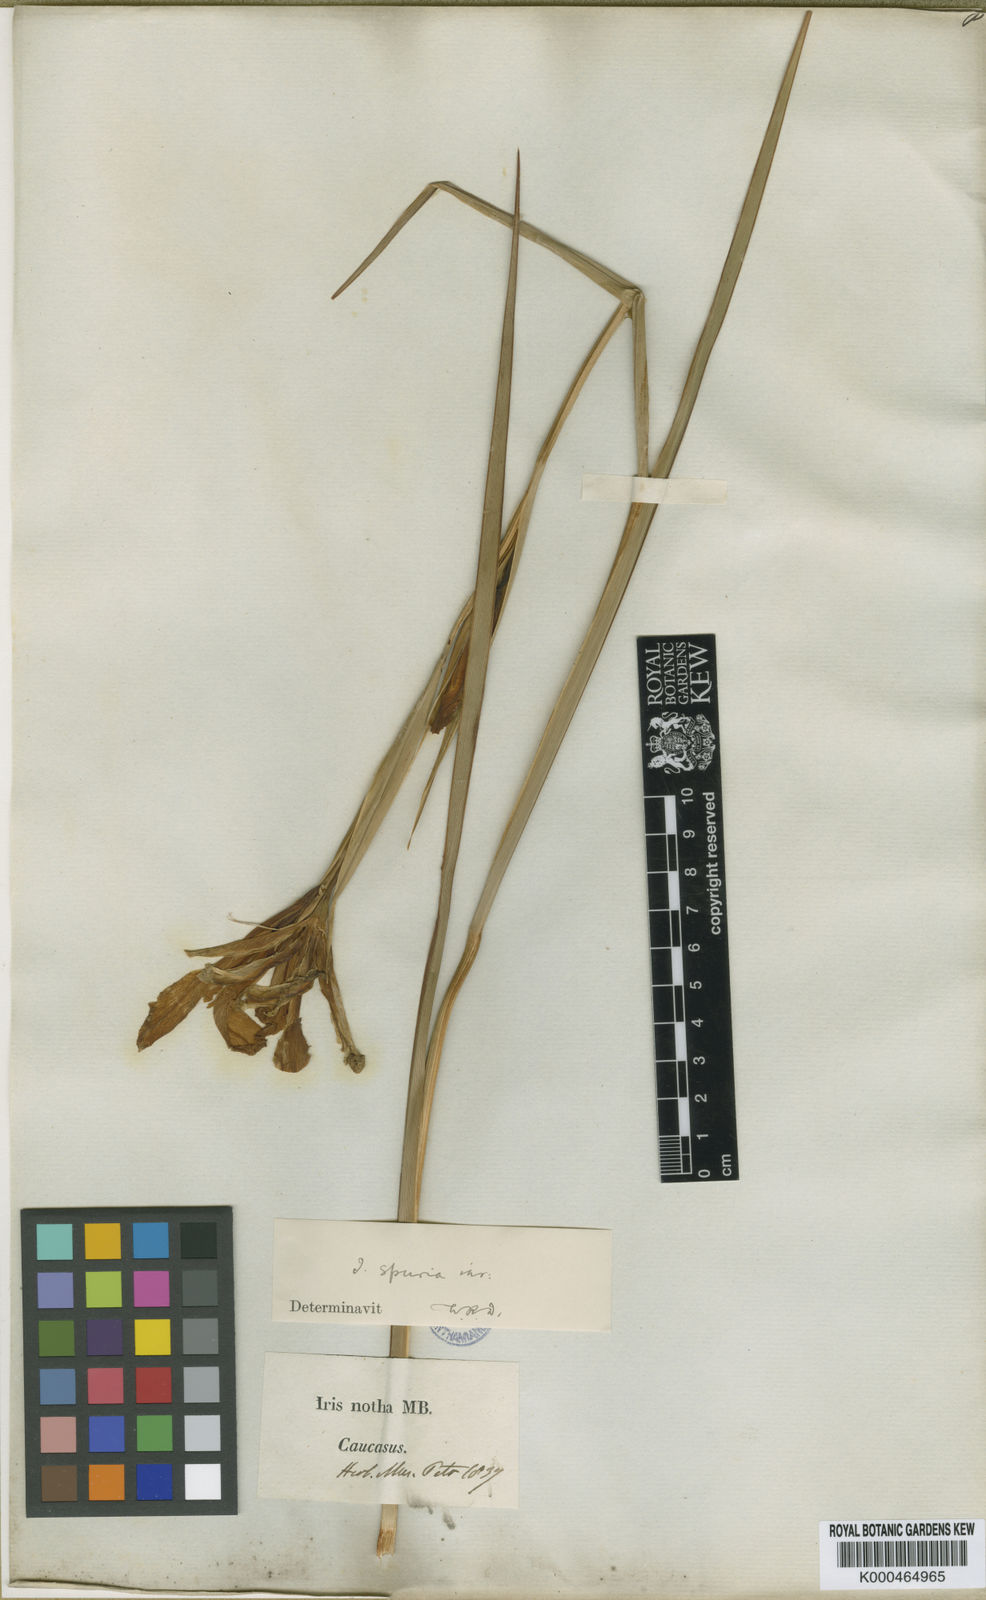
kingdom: Plantae
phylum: Tracheophyta
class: Liliopsida
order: Asparagales
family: Iridaceae
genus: Iris
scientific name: Iris
